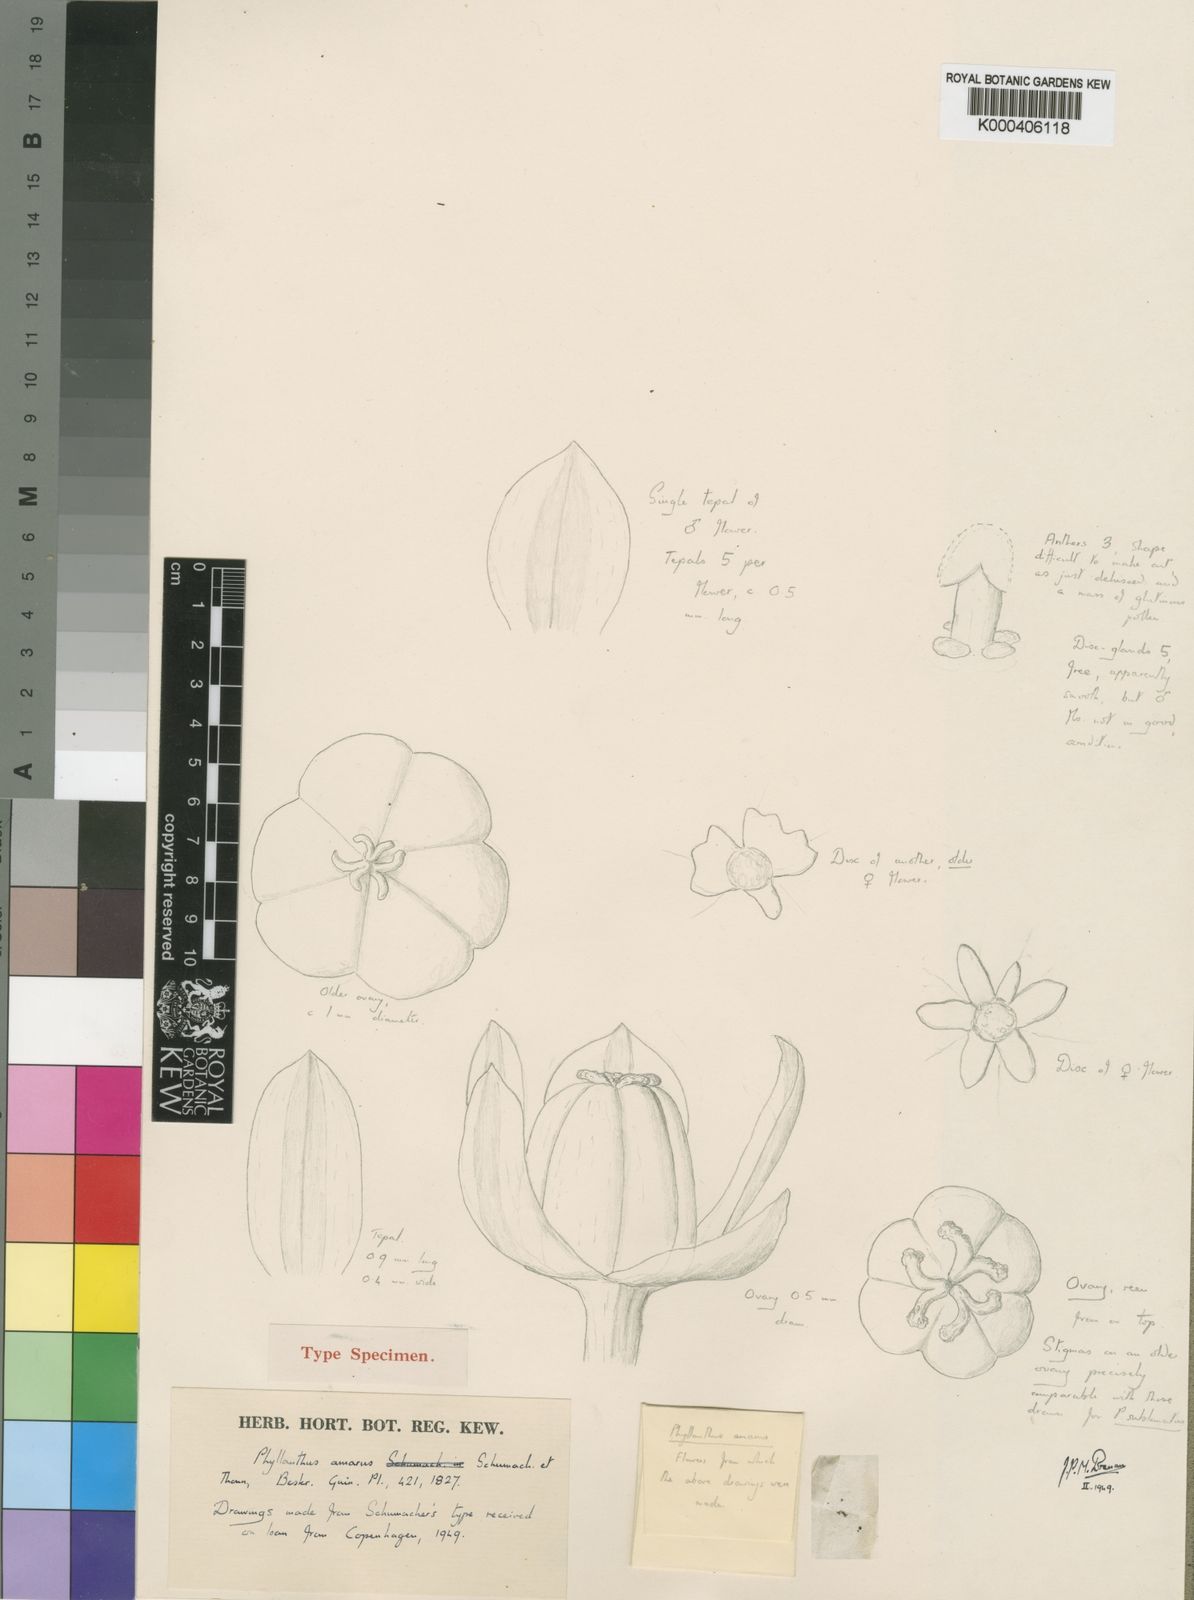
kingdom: Plantae
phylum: Tracheophyta
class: Magnoliopsida
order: Malpighiales
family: Phyllanthaceae
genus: Phyllanthus
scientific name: Phyllanthus amarus
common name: Carry me seed
